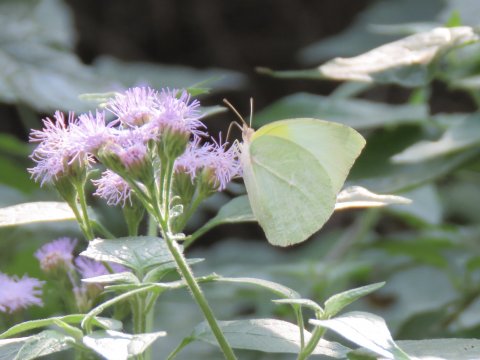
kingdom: Animalia
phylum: Arthropoda
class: Insecta
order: Lepidoptera
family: Pieridae
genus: Kricogonia
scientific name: Kricogonia lyside
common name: Lyside Sulphur
